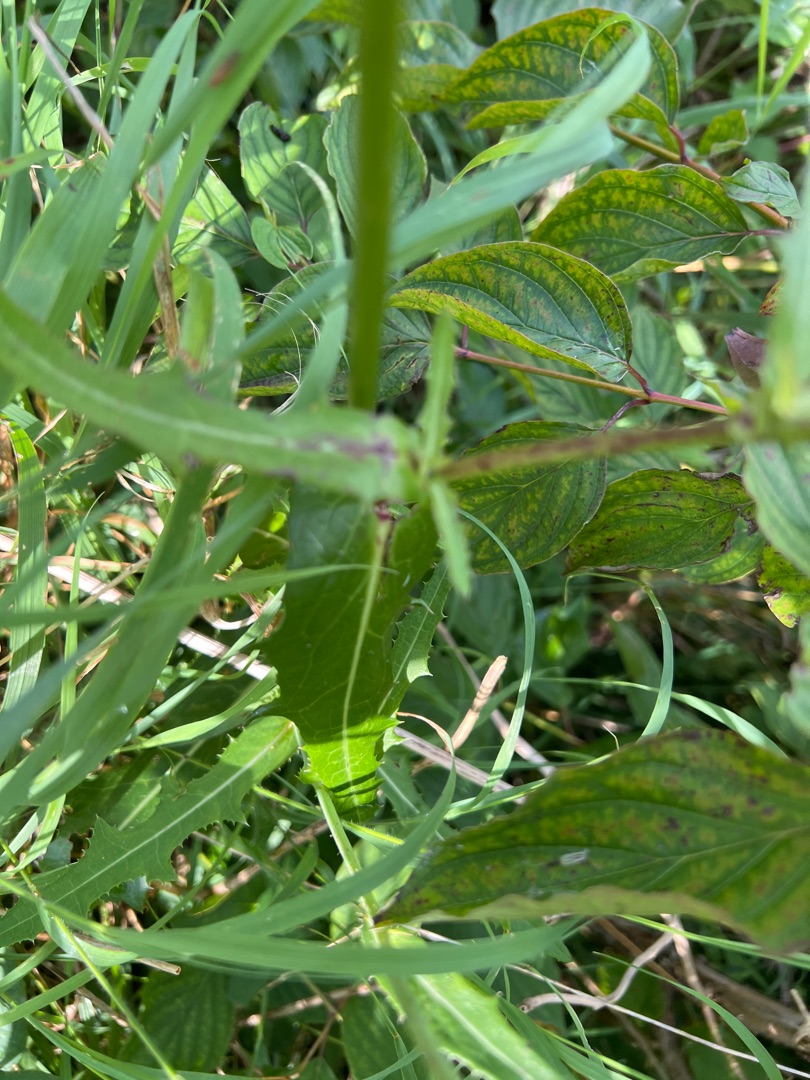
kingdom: Plantae
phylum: Tracheophyta
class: Magnoliopsida
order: Asterales
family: Asteraceae
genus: Sonchus
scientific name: Sonchus arvensis
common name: Ager-svinemælk
